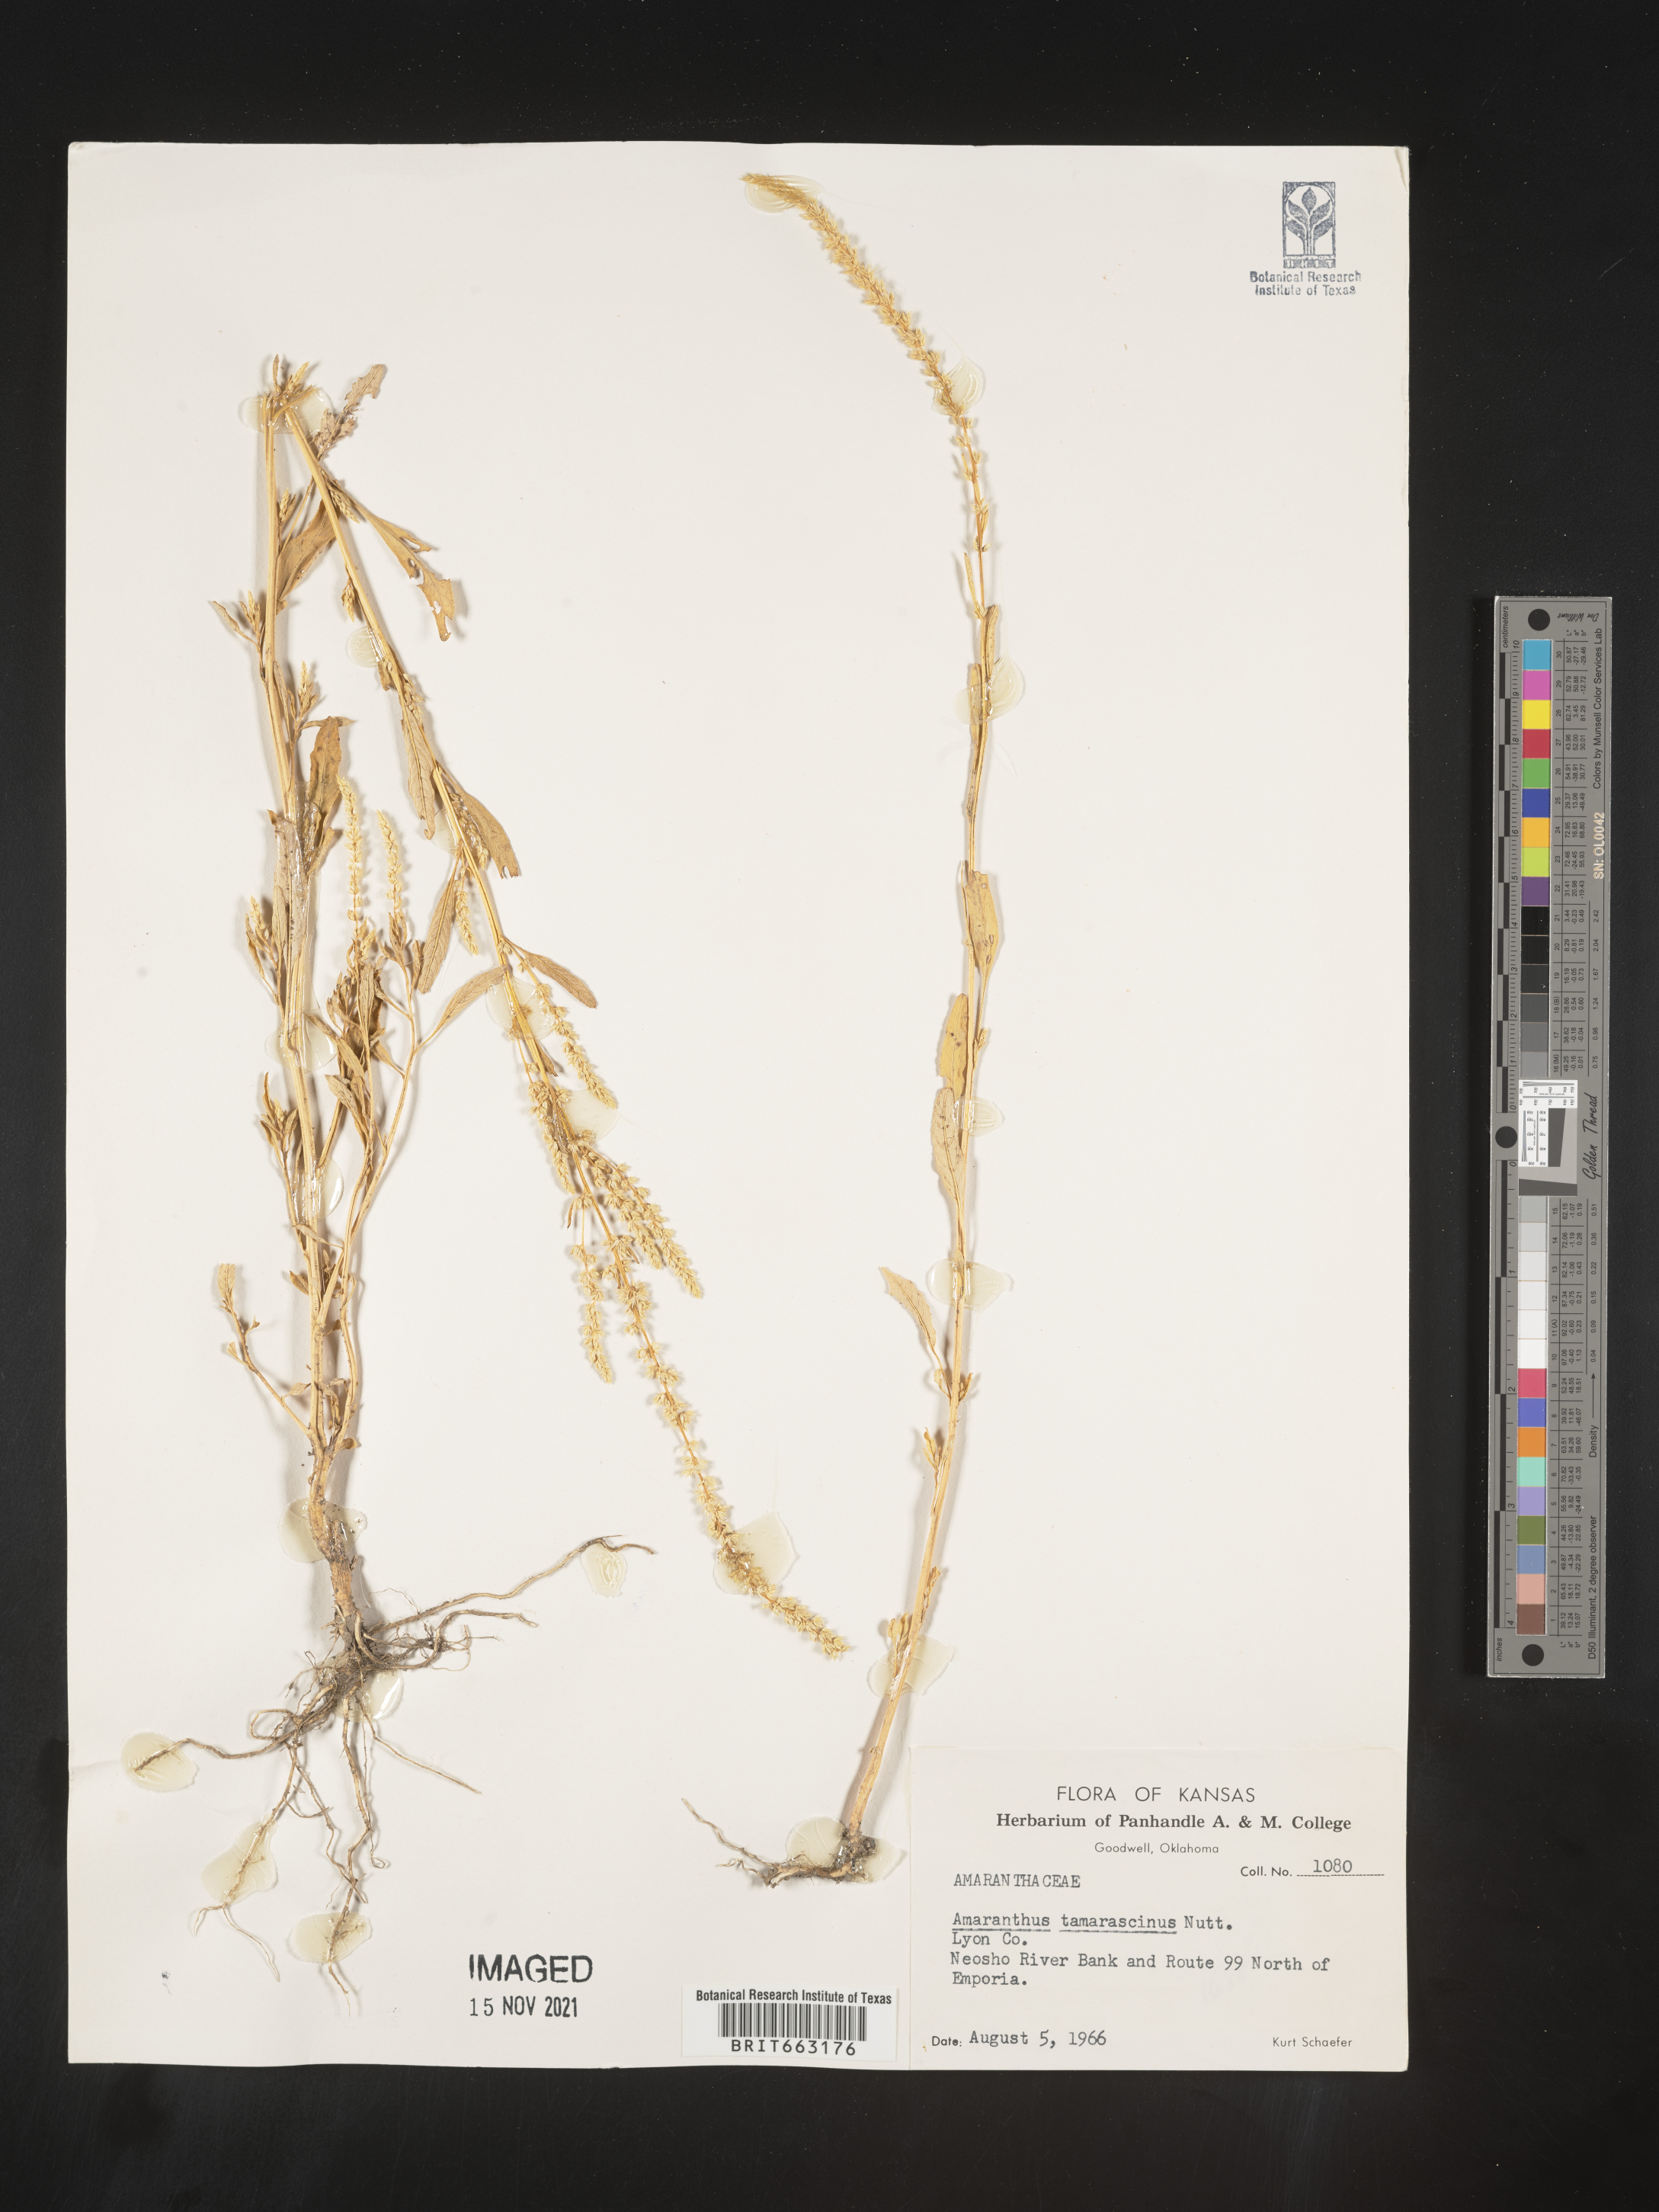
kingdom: Plantae
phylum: Tracheophyta
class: Magnoliopsida
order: Caryophyllales
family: Amaranthaceae
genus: Amaranthus
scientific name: Amaranthus tamariscinus
